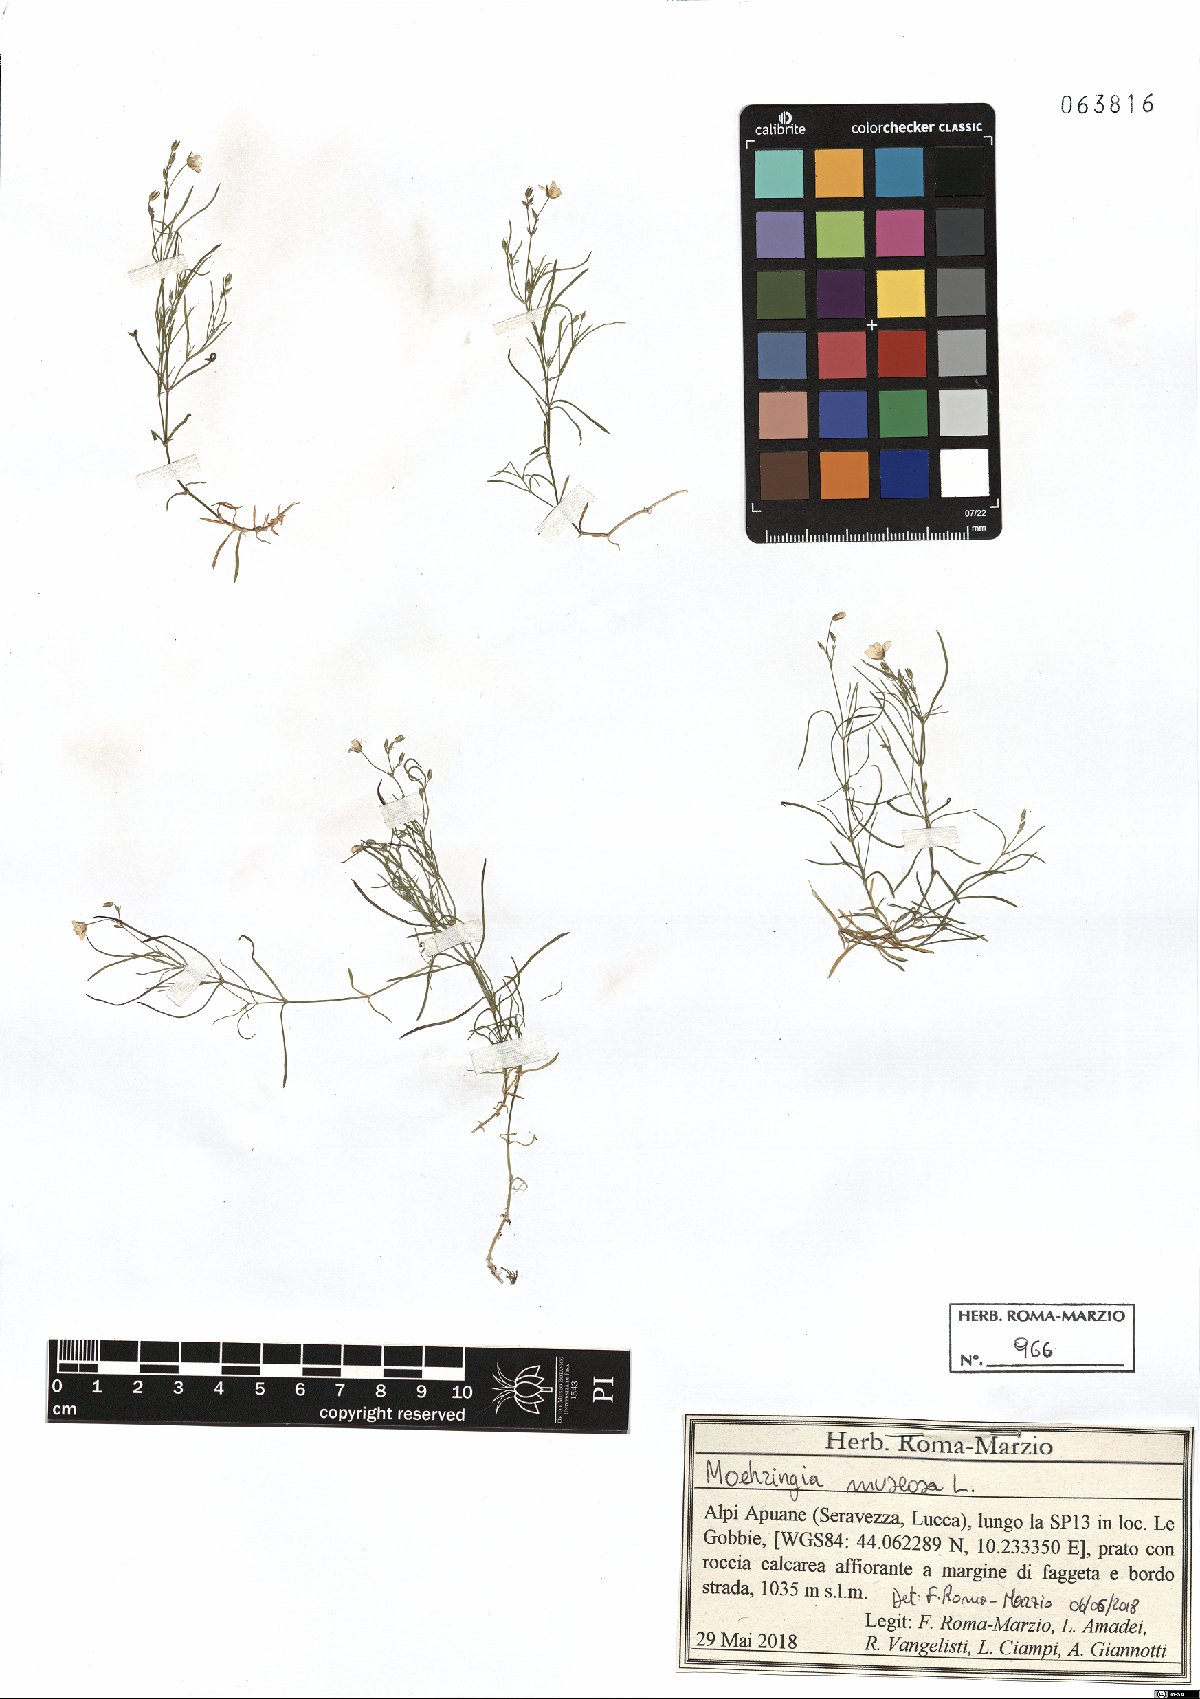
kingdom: Plantae
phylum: Tracheophyta
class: Magnoliopsida
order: Caryophyllales
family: Caryophyllaceae
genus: Moehringia
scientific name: Moehringia muscosa
